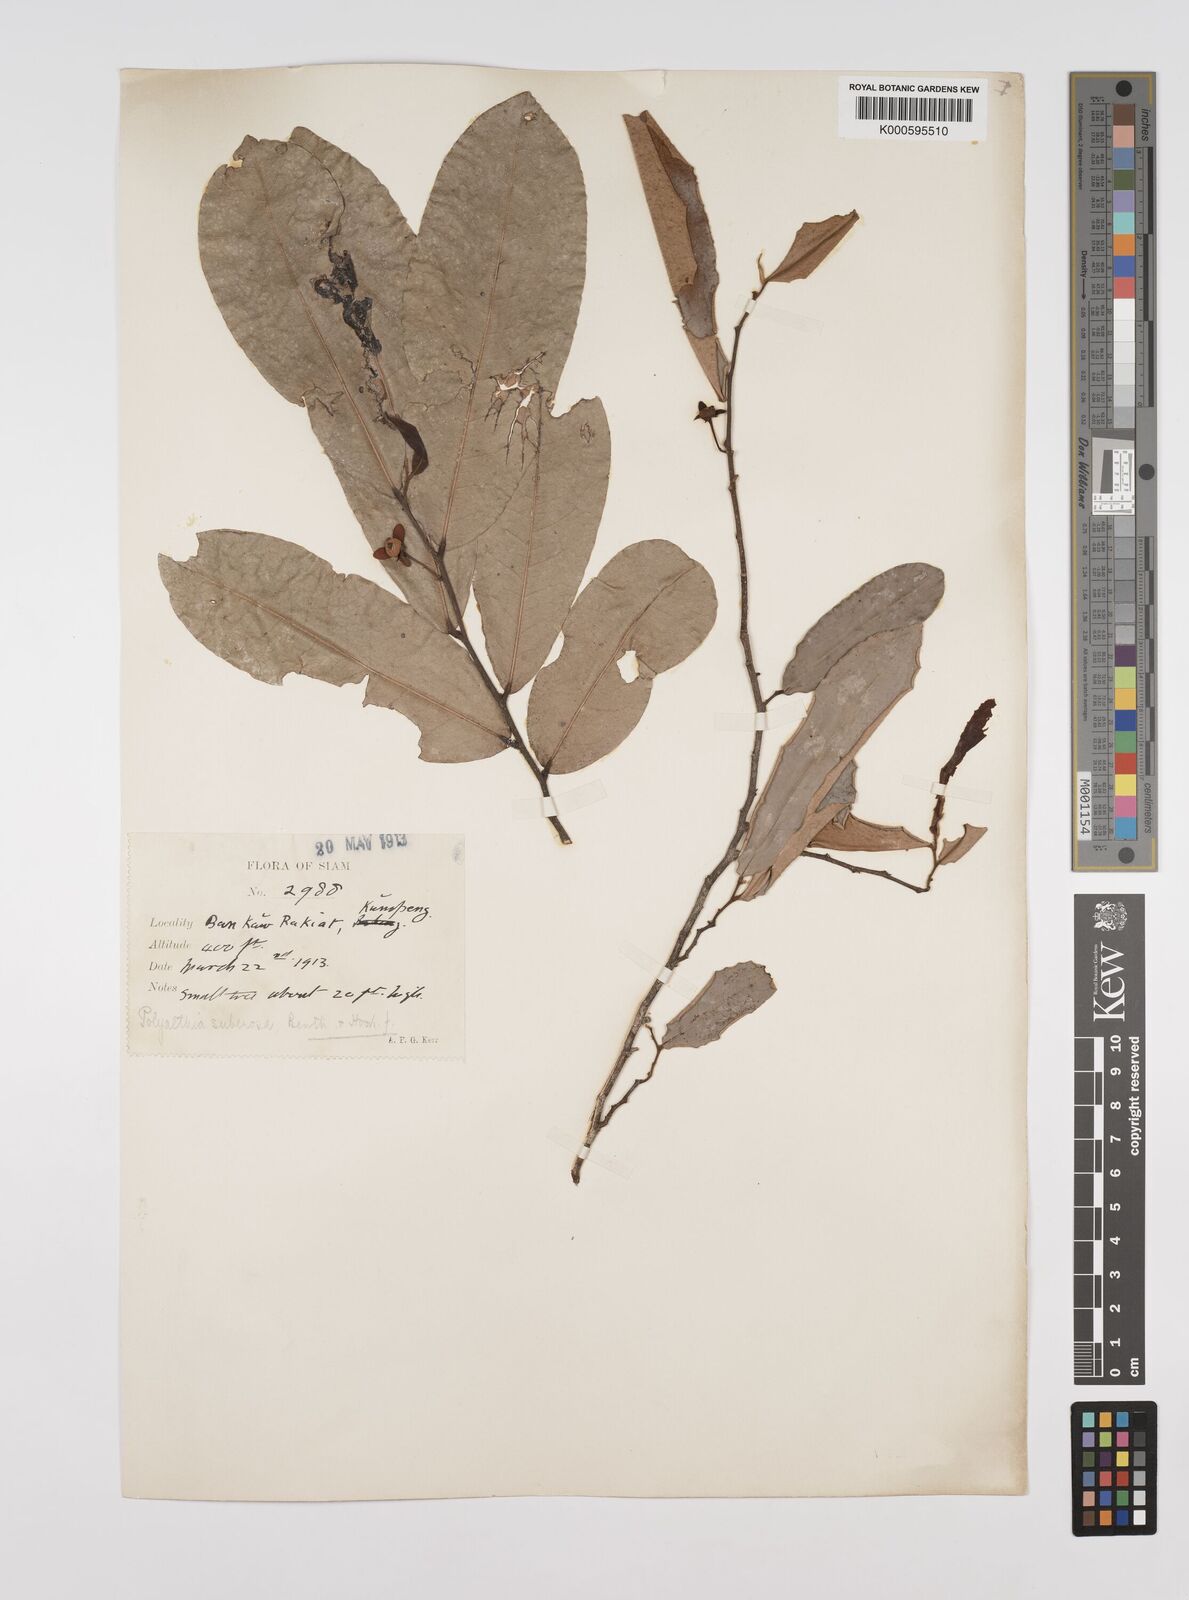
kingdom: Plantae
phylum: Tracheophyta
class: Magnoliopsida
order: Magnoliales
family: Annonaceae
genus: Polyalthia
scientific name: Polyalthia
